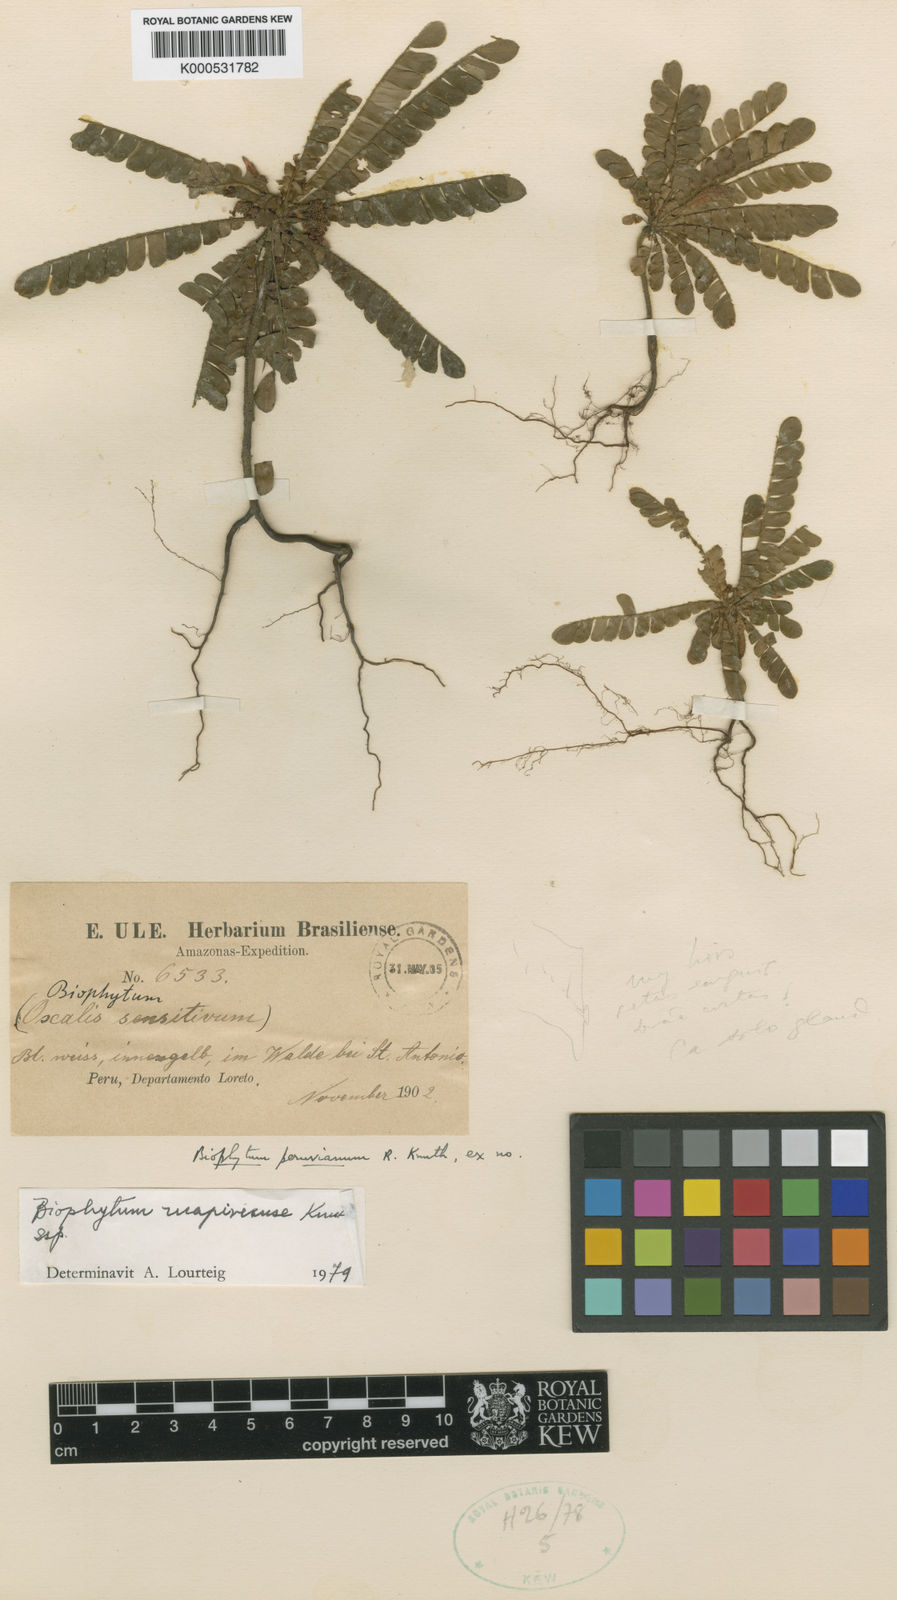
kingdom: Plantae
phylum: Tracheophyta
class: Magnoliopsida
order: Oxalidales
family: Oxalidaceae
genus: Biophytum
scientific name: Biophytum mapirense
